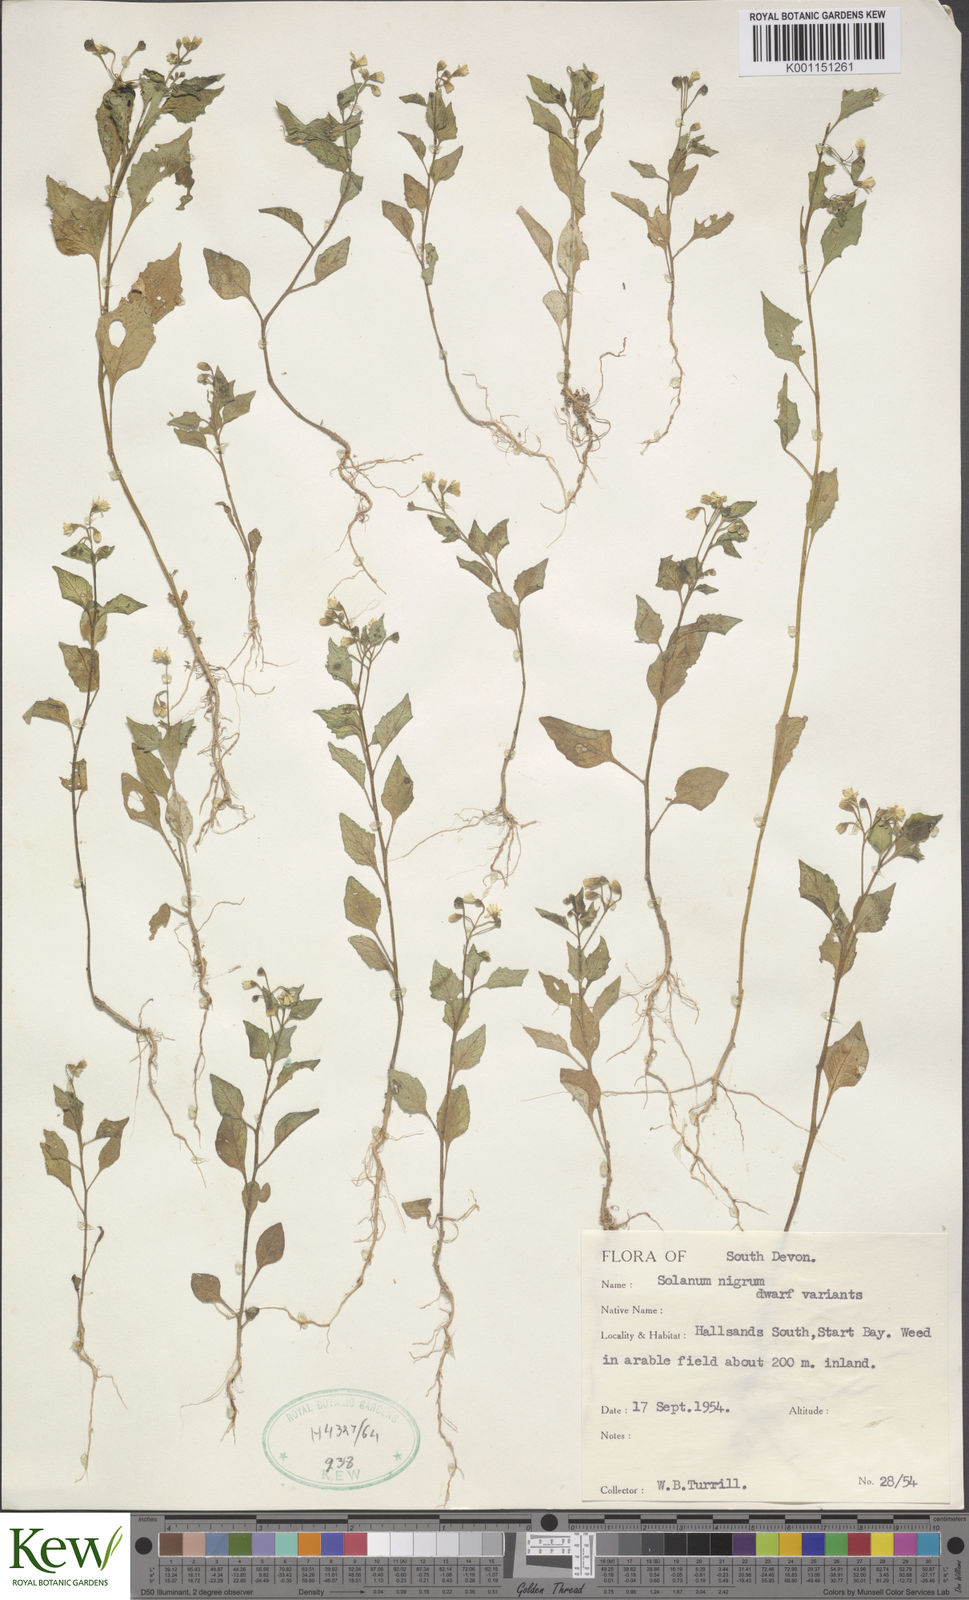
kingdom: Plantae
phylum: Tracheophyta
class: Magnoliopsida
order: Solanales
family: Solanaceae
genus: Solanum
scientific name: Solanum nigrum
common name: Black nightshade
